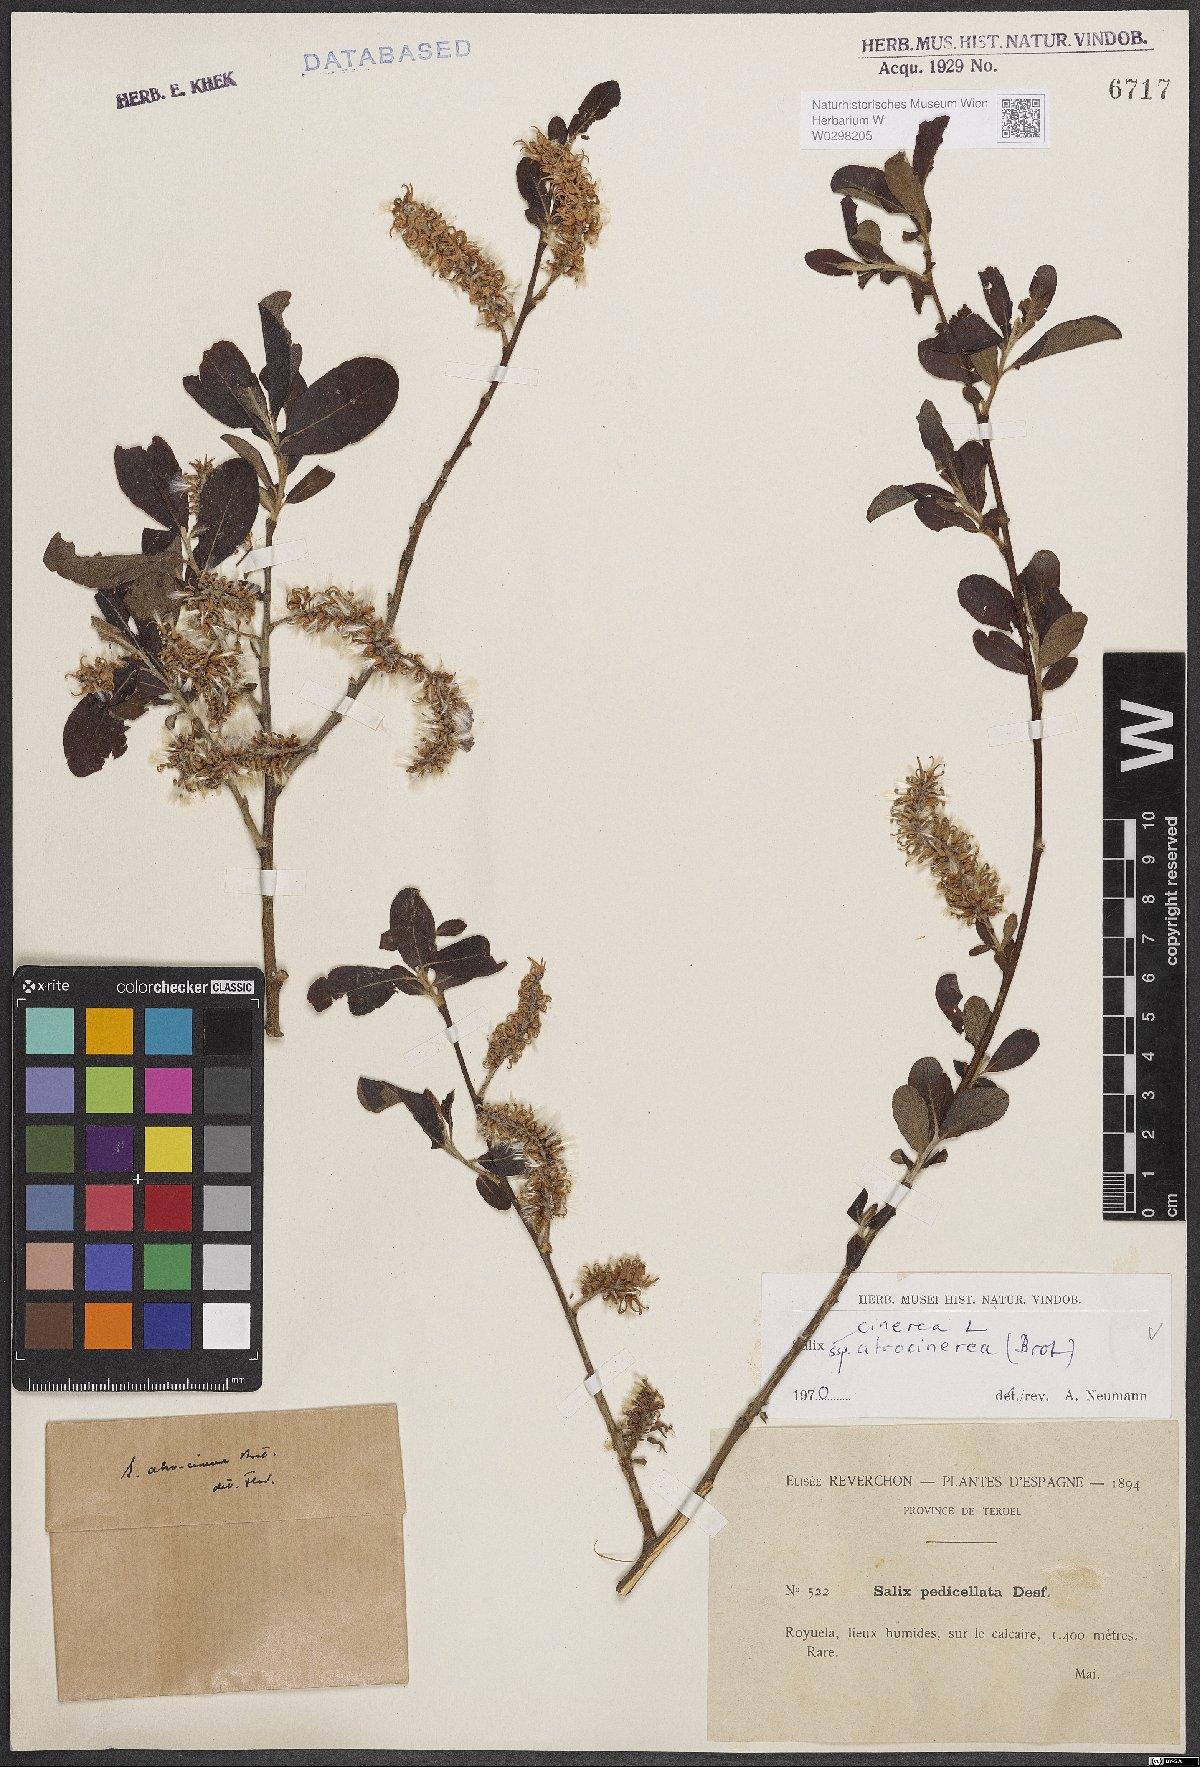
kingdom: Plantae
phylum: Tracheophyta
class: Magnoliopsida
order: Malpighiales
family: Salicaceae
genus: Salix
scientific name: Salix atrocinerea
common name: Rusty willow
